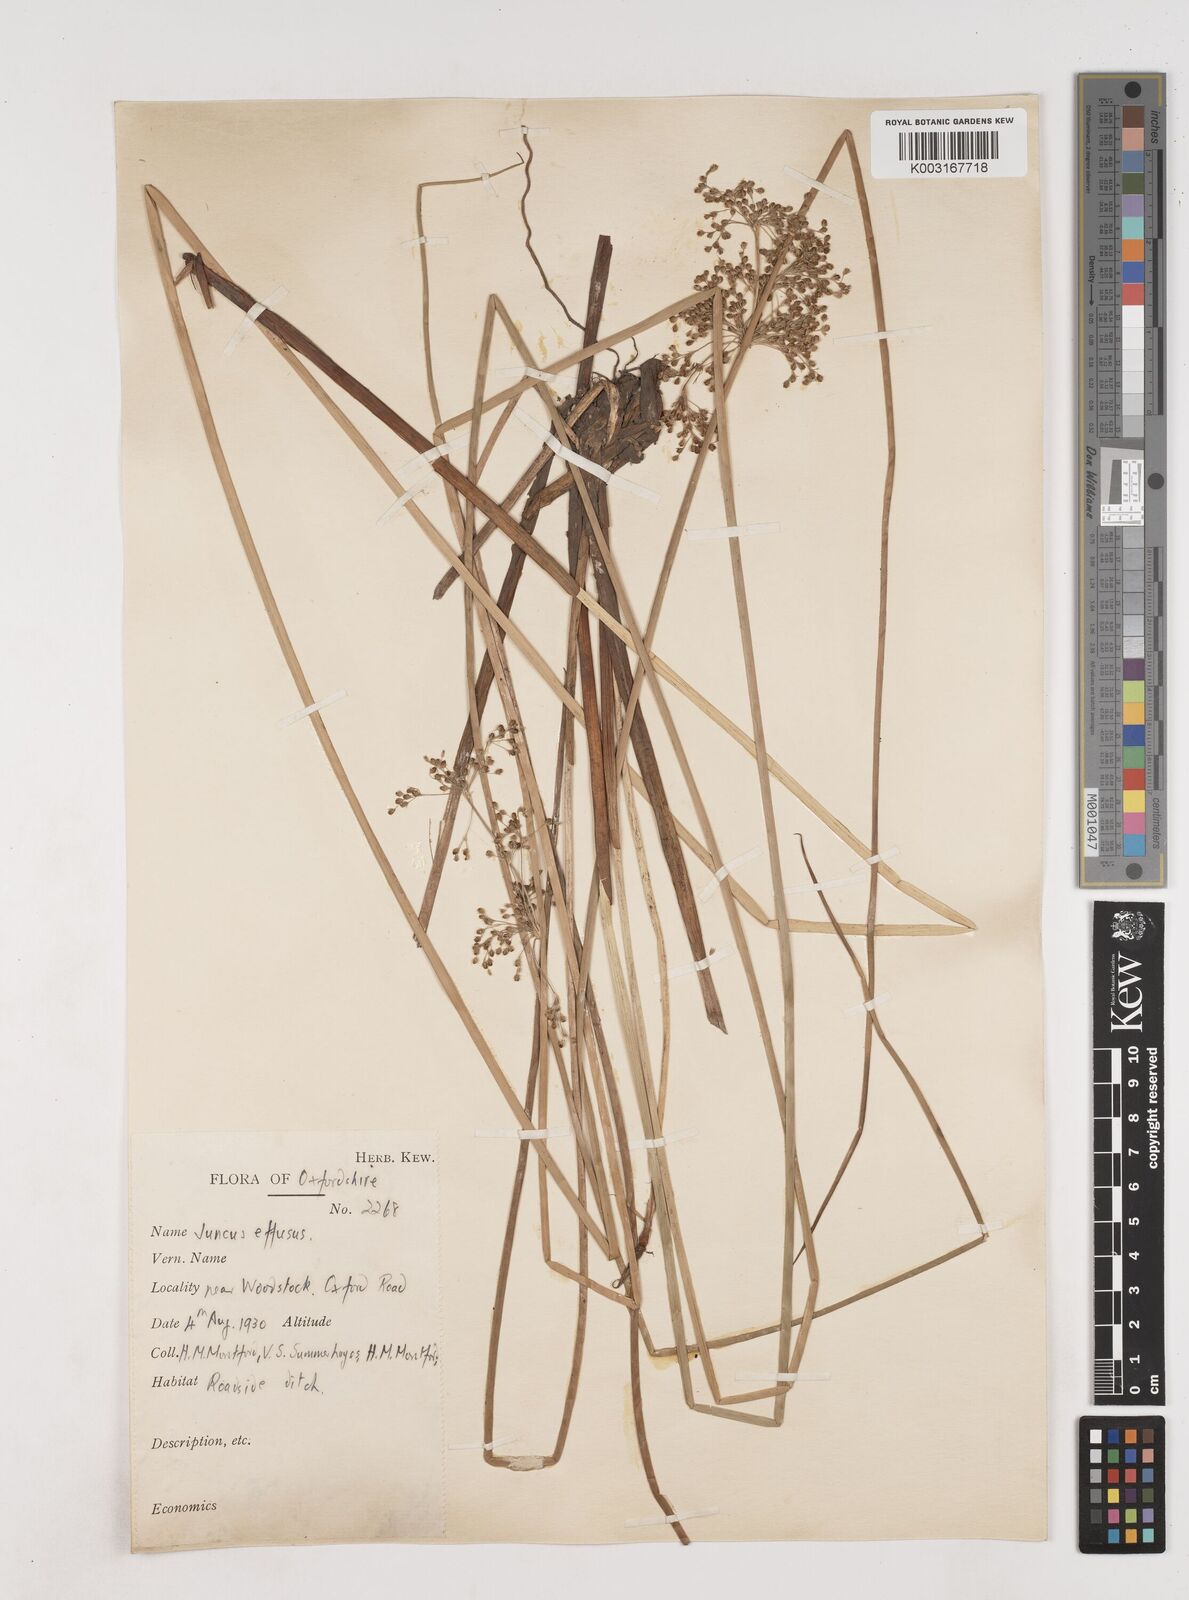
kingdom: Plantae
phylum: Tracheophyta
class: Liliopsida
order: Poales
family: Juncaceae
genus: Juncus
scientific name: Juncus effusus
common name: Soft rush
